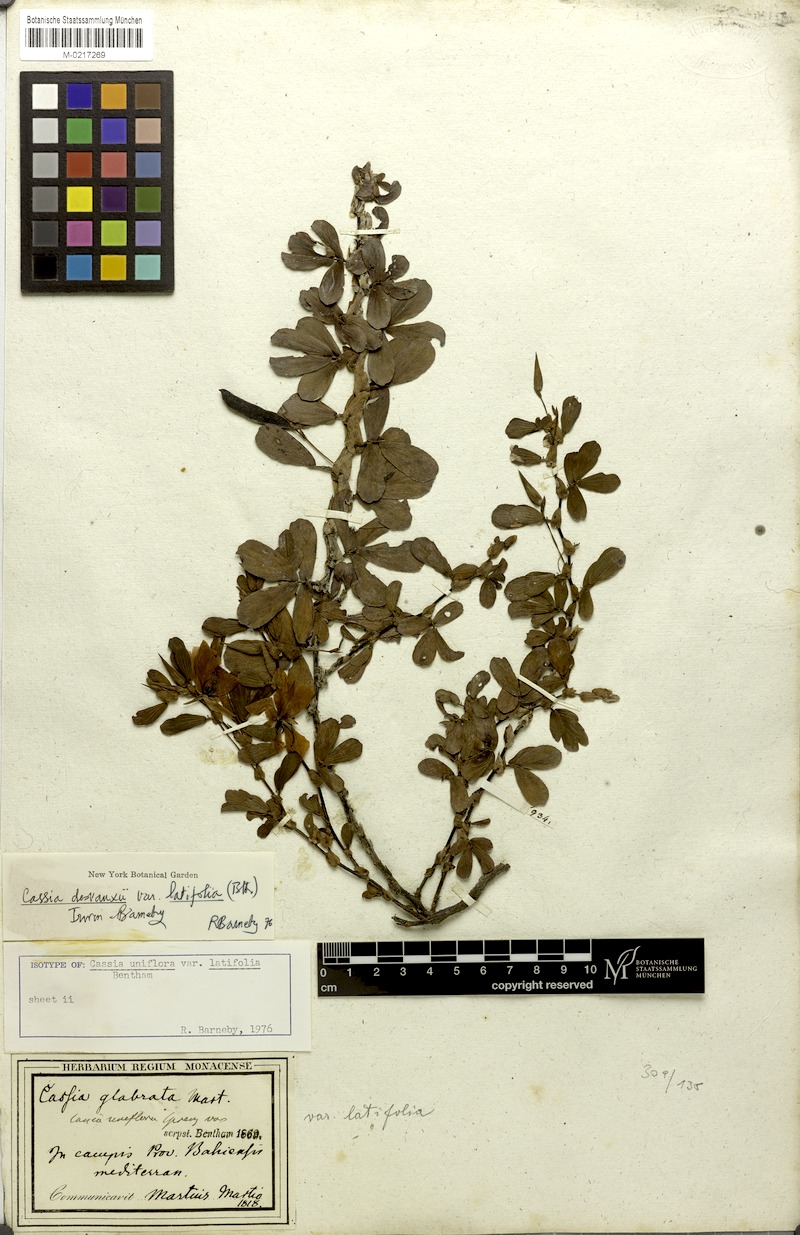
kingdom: Plantae
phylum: Tracheophyta
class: Magnoliopsida
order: Fabales
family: Fabaceae
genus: Chamaecrista
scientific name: Chamaecrista desvauxii
